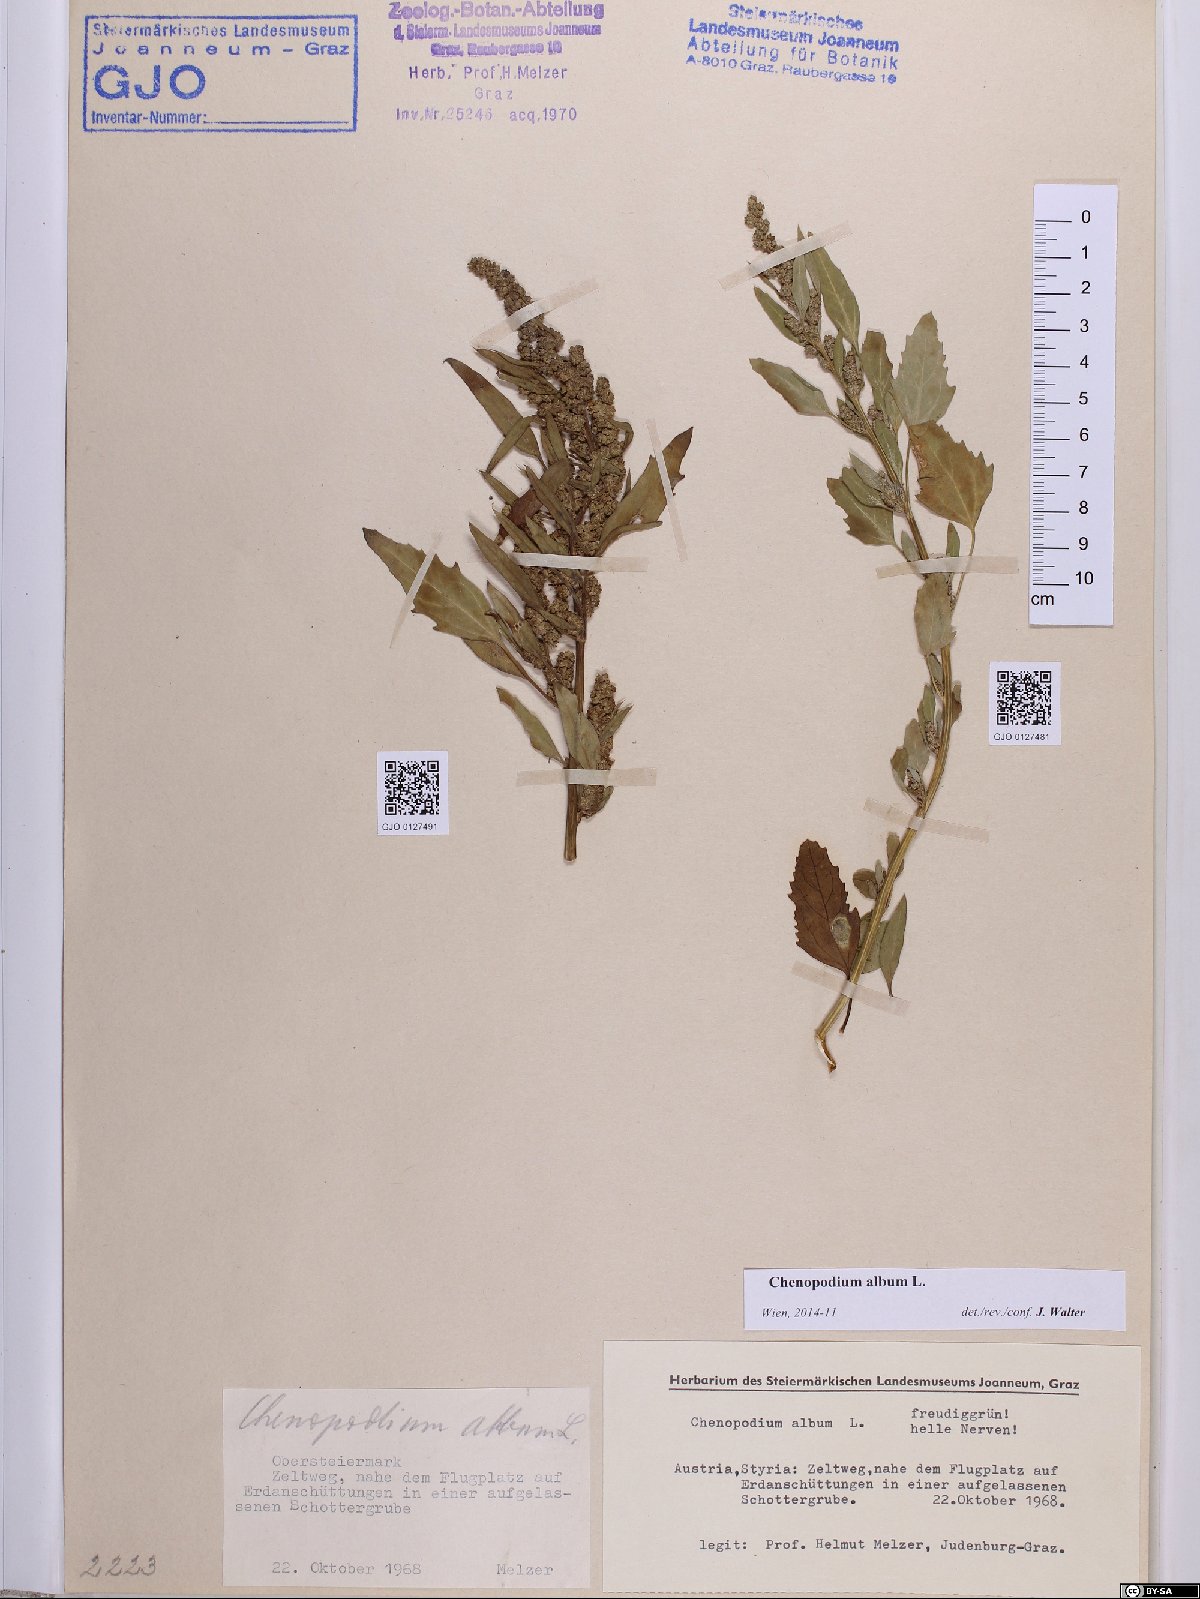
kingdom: Plantae
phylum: Tracheophyta
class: Magnoliopsida
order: Caryophyllales
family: Amaranthaceae
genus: Chenopodium
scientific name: Chenopodium album
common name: Fat-hen
